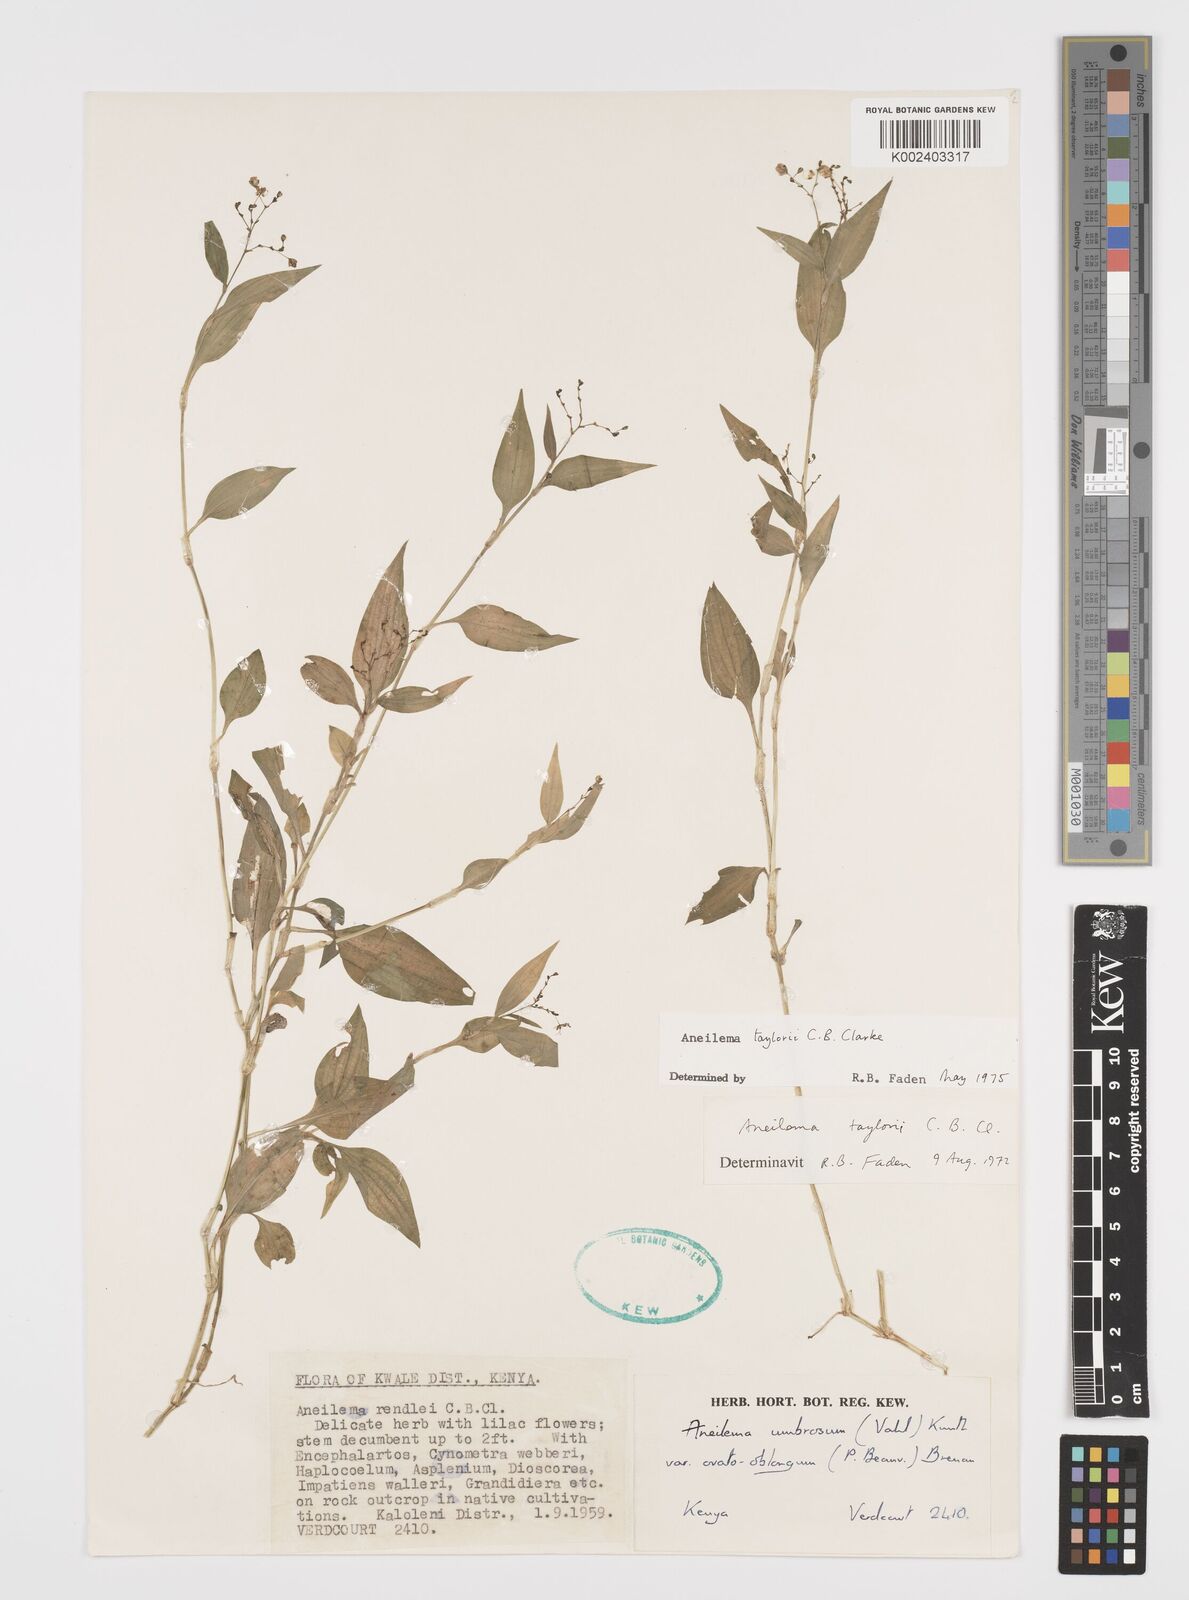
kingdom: Plantae
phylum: Tracheophyta
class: Liliopsida
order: Commelinales
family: Commelinaceae
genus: Aneilema
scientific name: Aneilema taylorii
